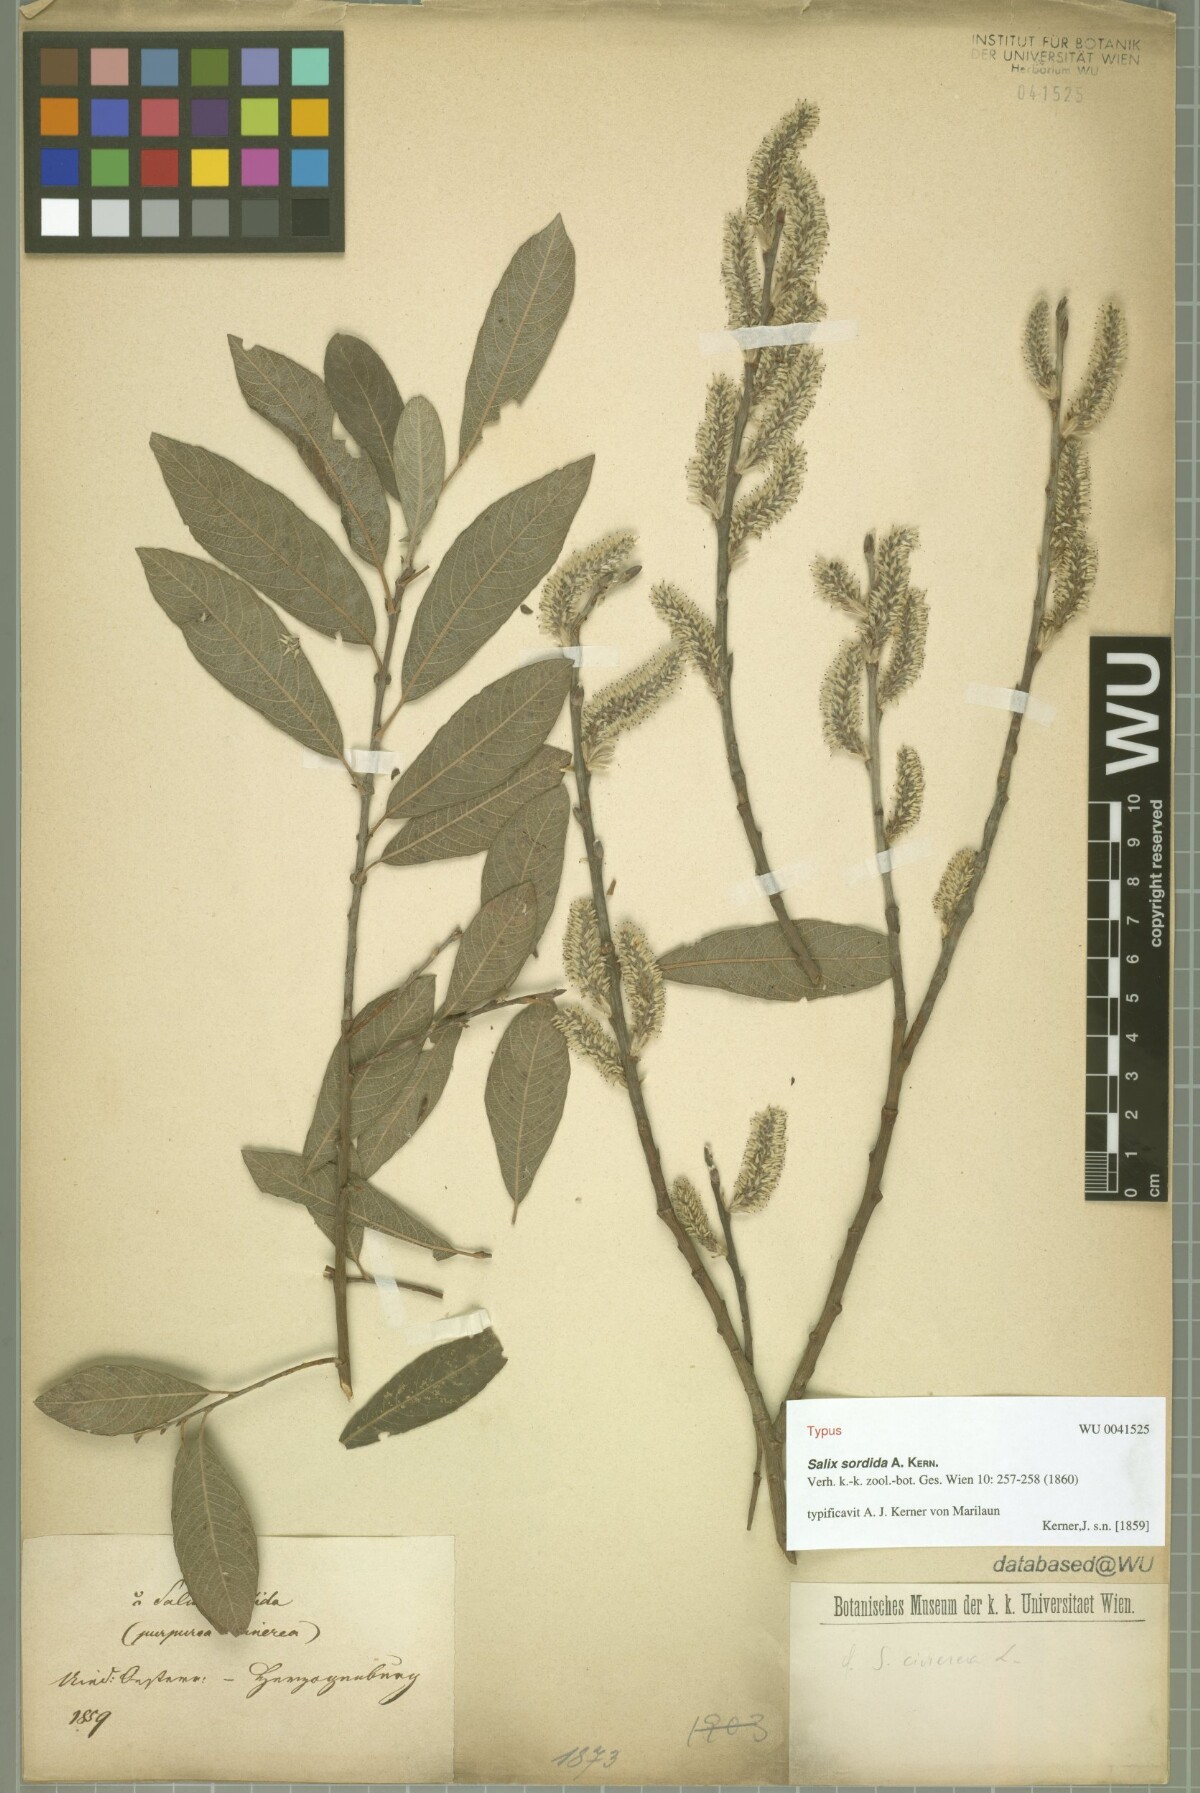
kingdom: Plantae
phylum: Tracheophyta
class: Magnoliopsida
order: Malpighiales
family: Salicaceae
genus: Salix
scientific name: Salix sordida
